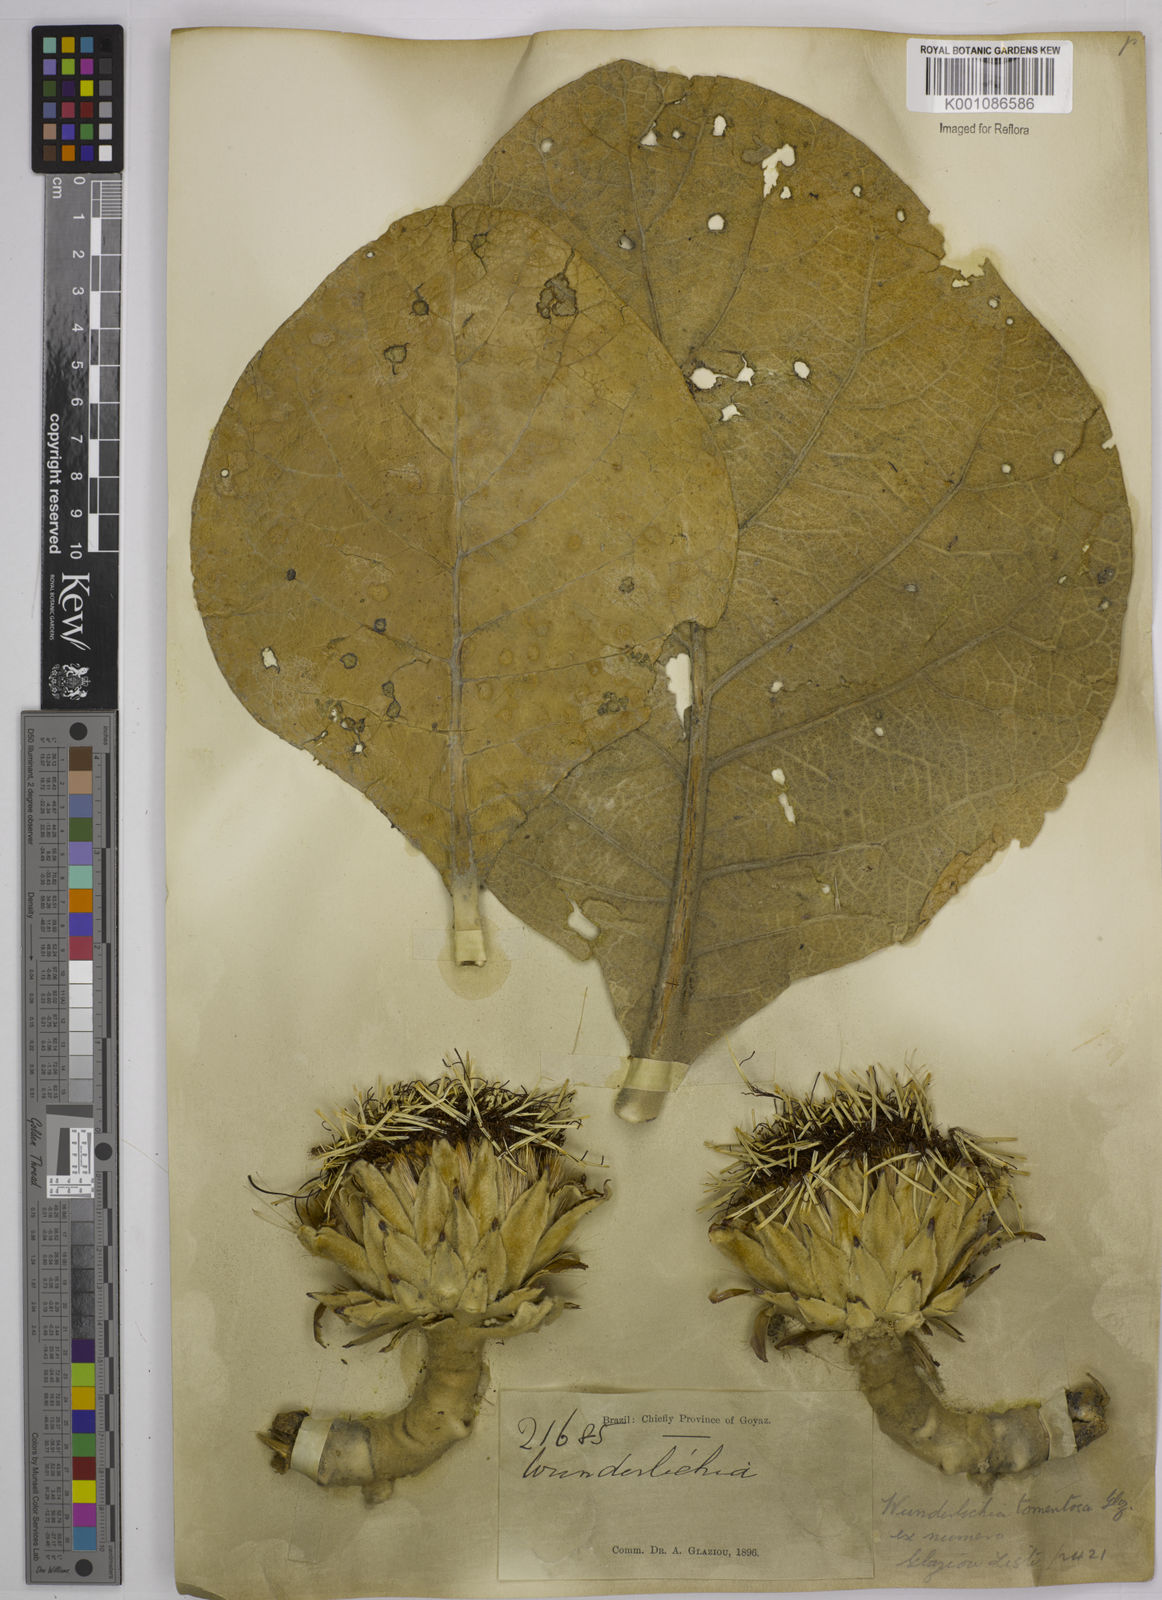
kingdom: Plantae
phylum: Tracheophyta
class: Magnoliopsida
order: Asterales
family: Asteraceae
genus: Wunderlichia
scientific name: Wunderlichia mirabilis
